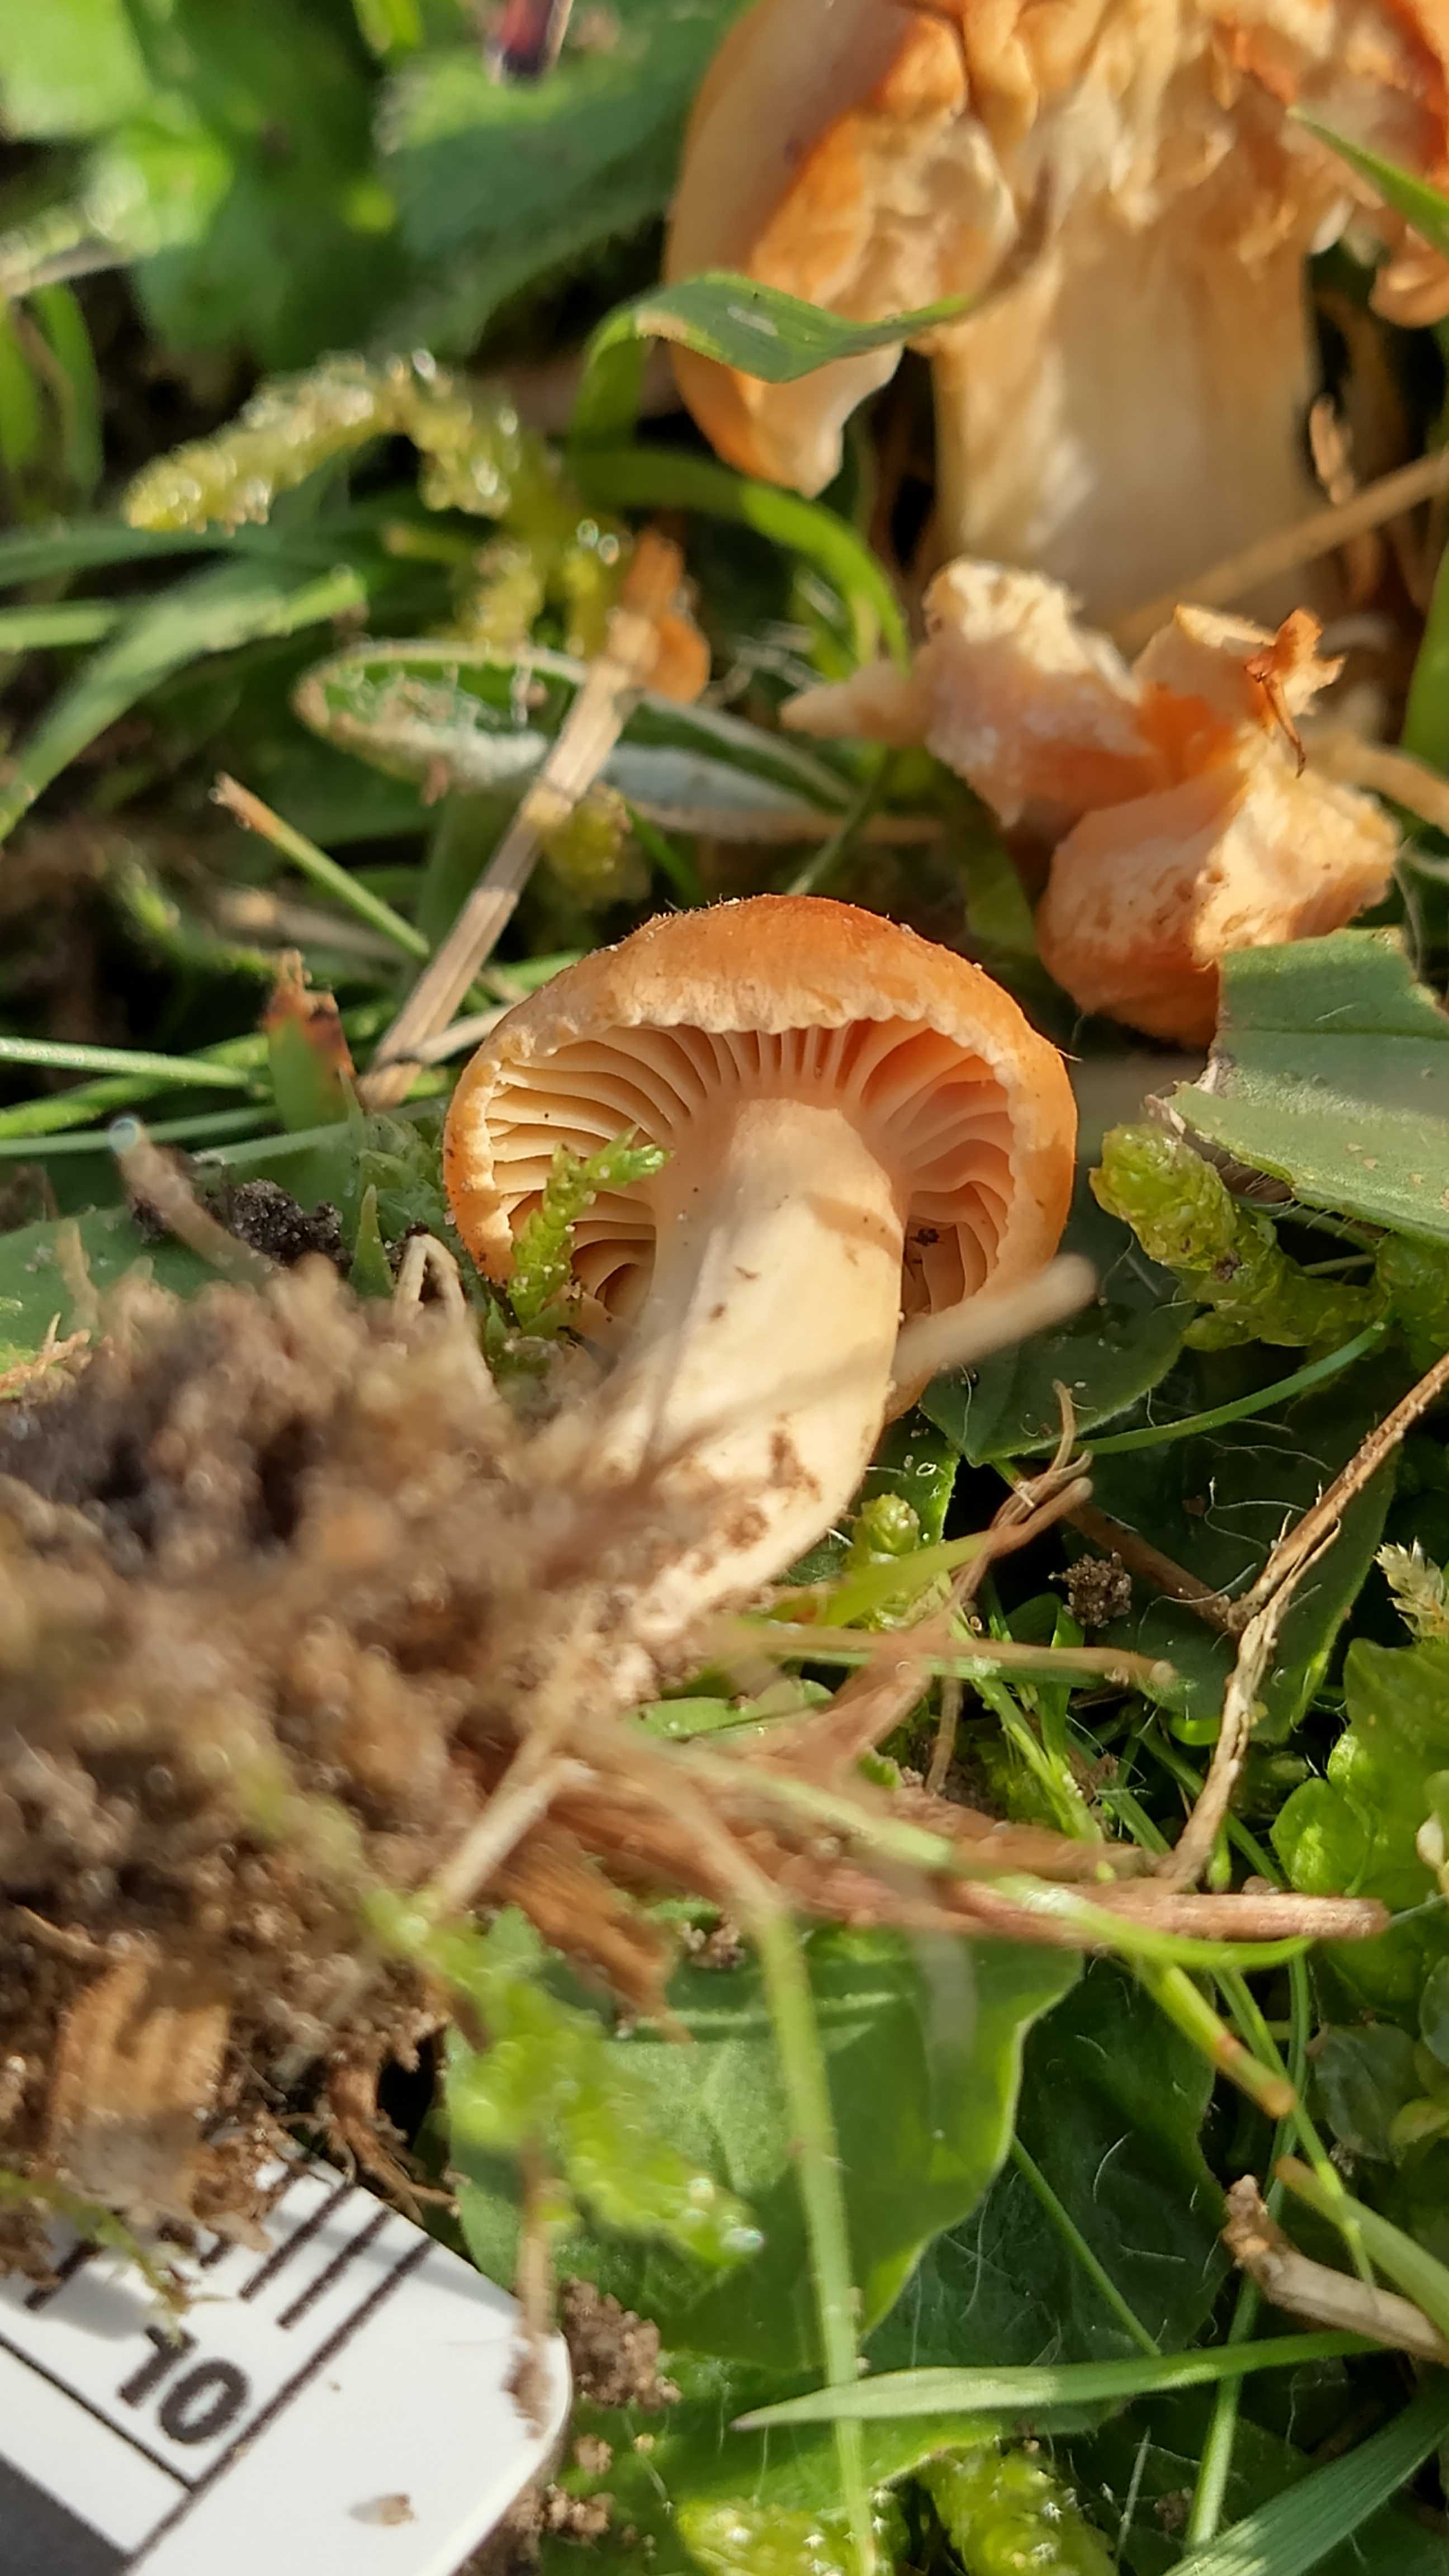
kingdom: Fungi
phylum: Basidiomycota
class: Agaricomycetes
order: Agaricales
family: Hygrophoraceae
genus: Cuphophyllus
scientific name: Cuphophyllus pratensis
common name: eng-vokshat
